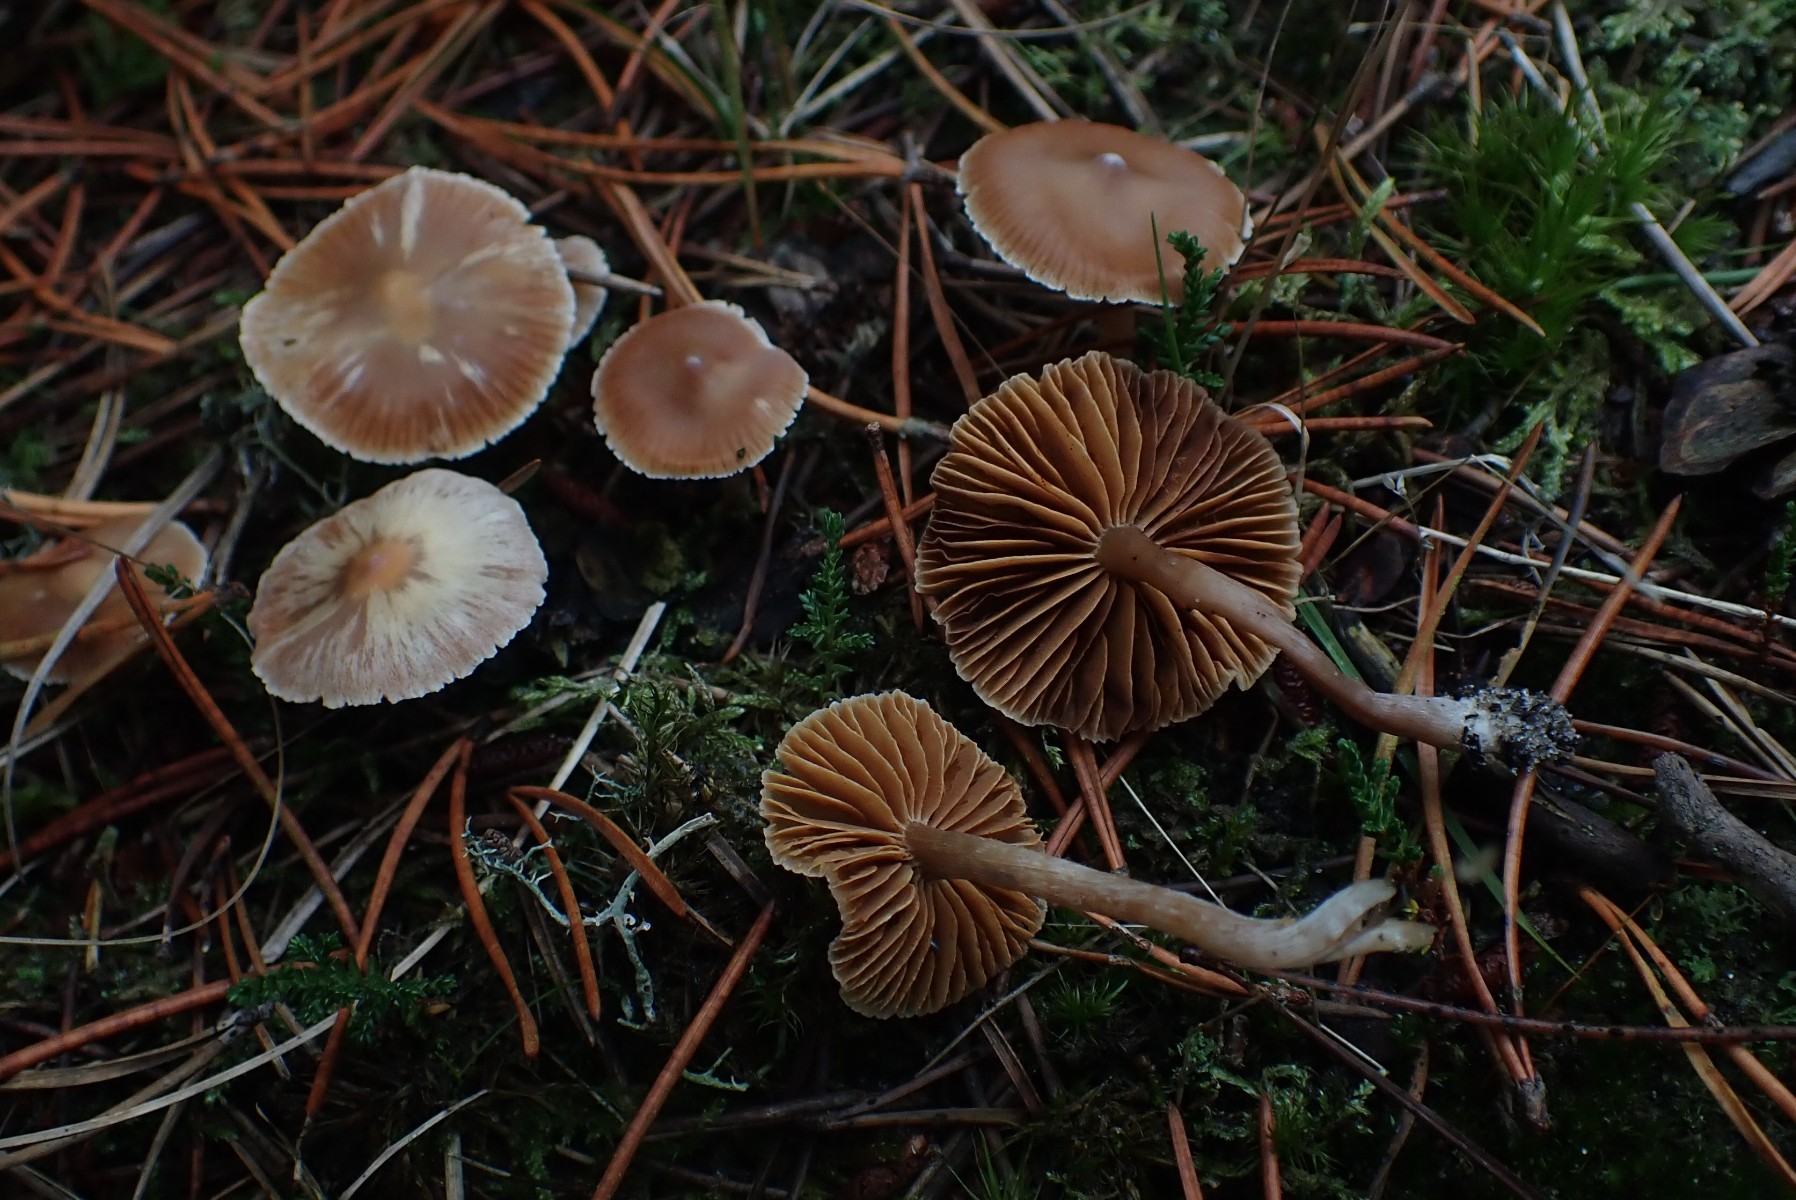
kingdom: Fungi
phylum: Basidiomycota
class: Agaricomycetes
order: Agaricales
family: Cortinariaceae
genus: Cortinarius
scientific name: Cortinarius
